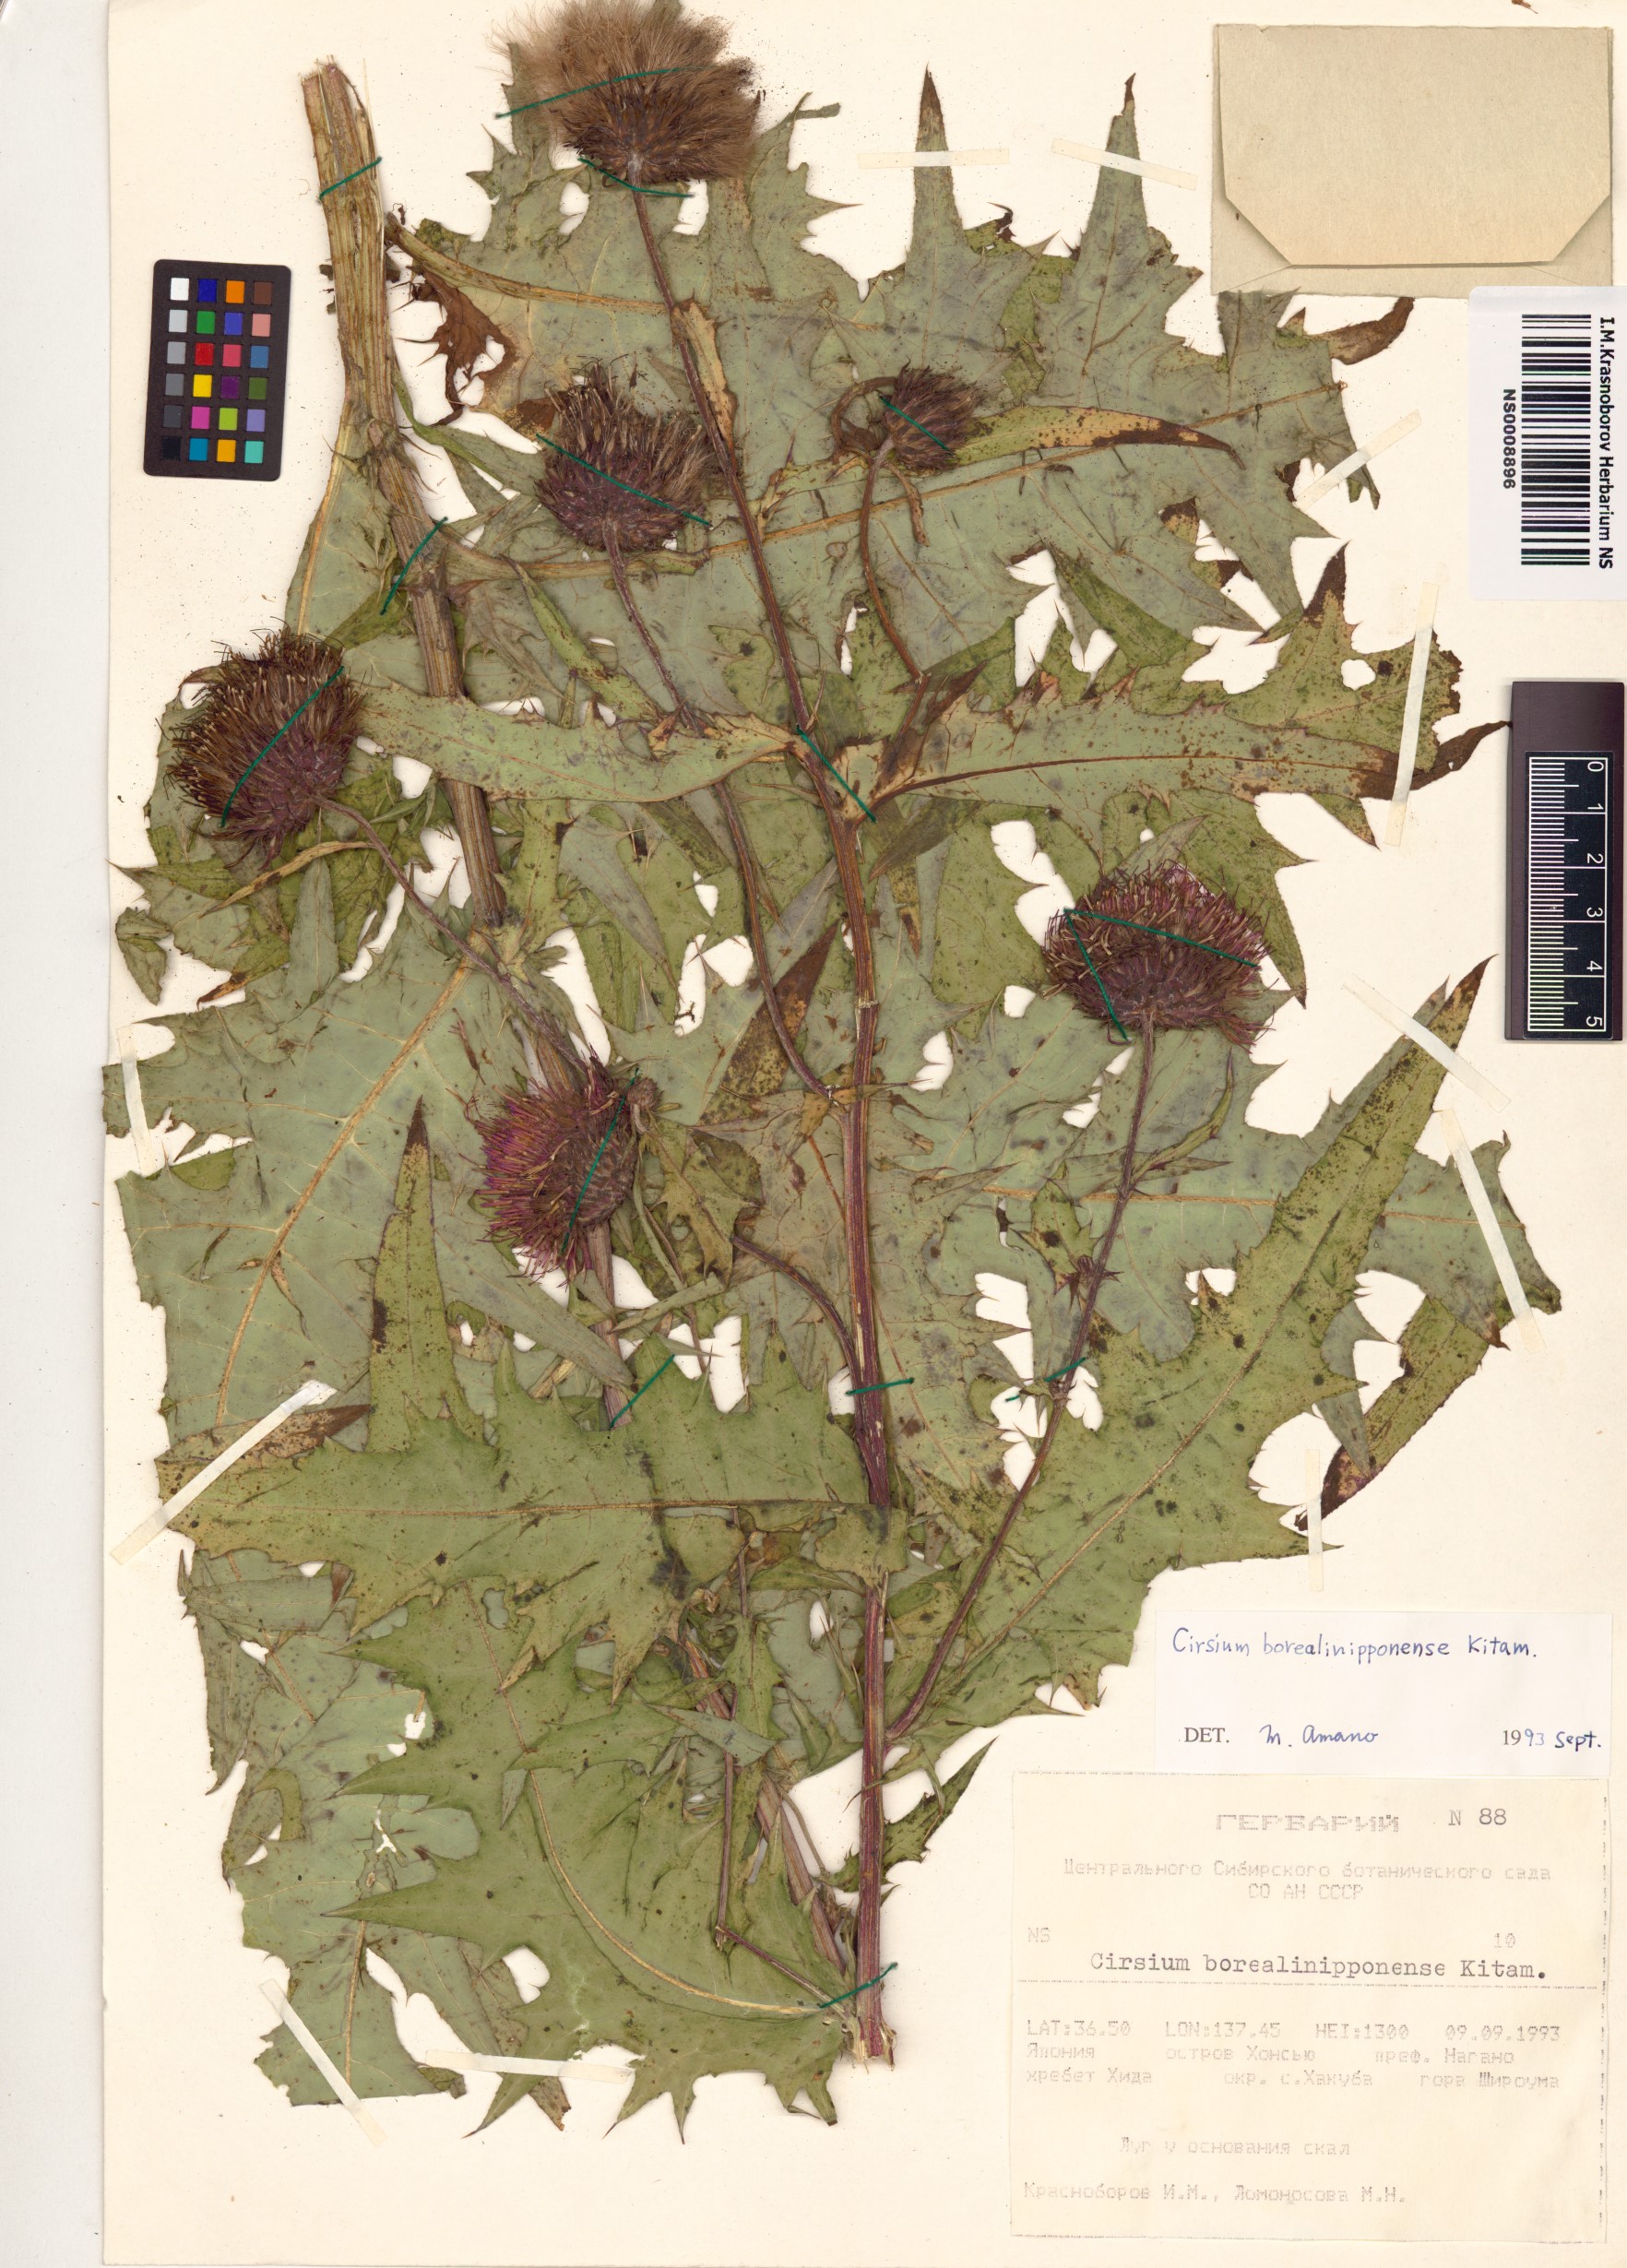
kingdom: Plantae
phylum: Tracheophyta
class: Magnoliopsida
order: Asterales
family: Asteraceae
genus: Cirsium
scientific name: Cirsium borealinipponense
